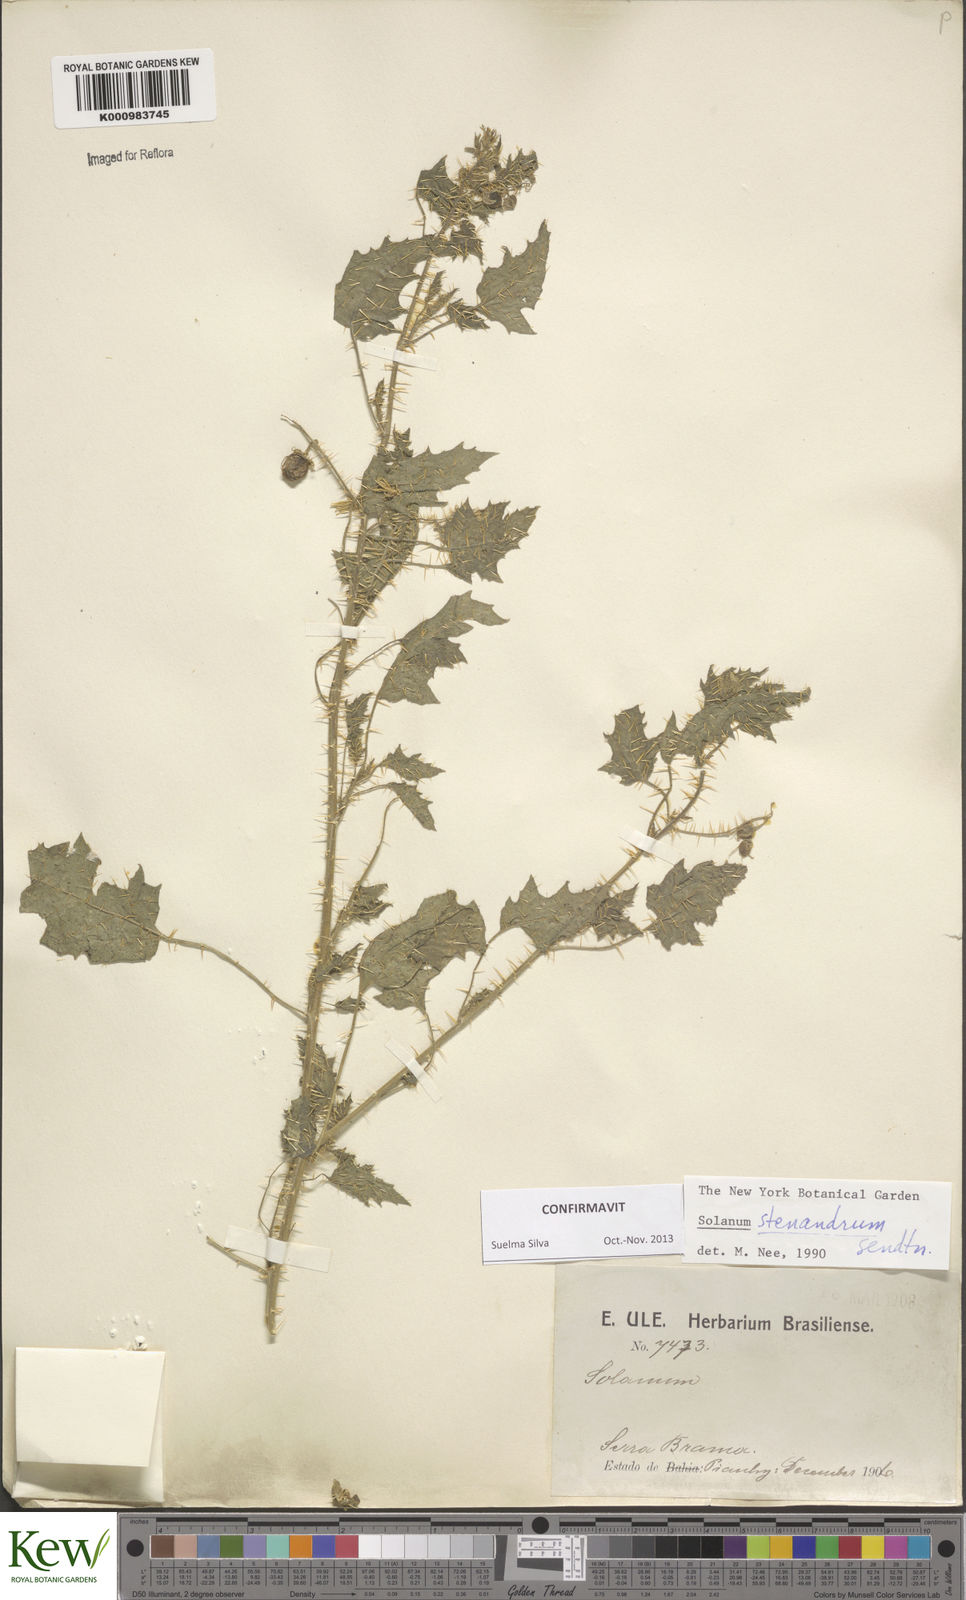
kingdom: Plantae
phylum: Tracheophyta
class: Magnoliopsida
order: Solanales
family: Solanaceae
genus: Solanum
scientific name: Solanum stenandrum
